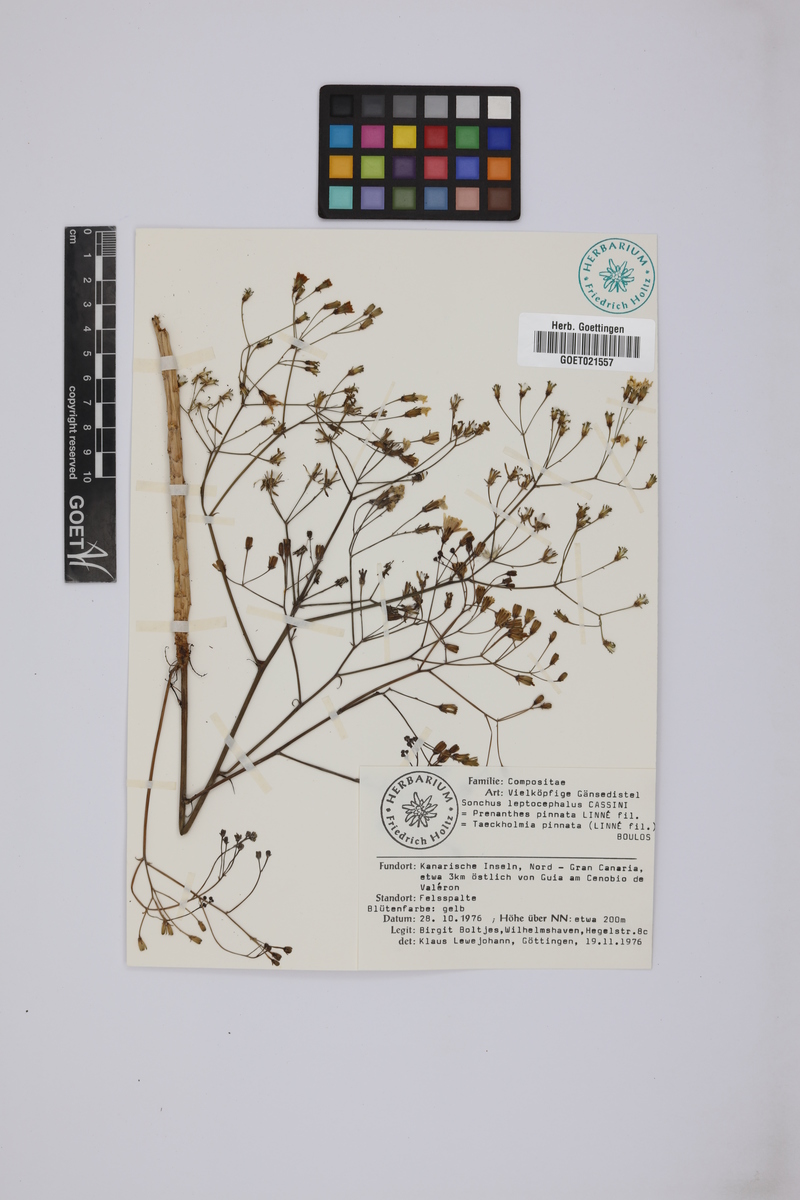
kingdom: Plantae
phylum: Tracheophyta
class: Magnoliopsida
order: Asterales
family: Asteraceae
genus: Sonchus
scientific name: Sonchus leptocephalus
